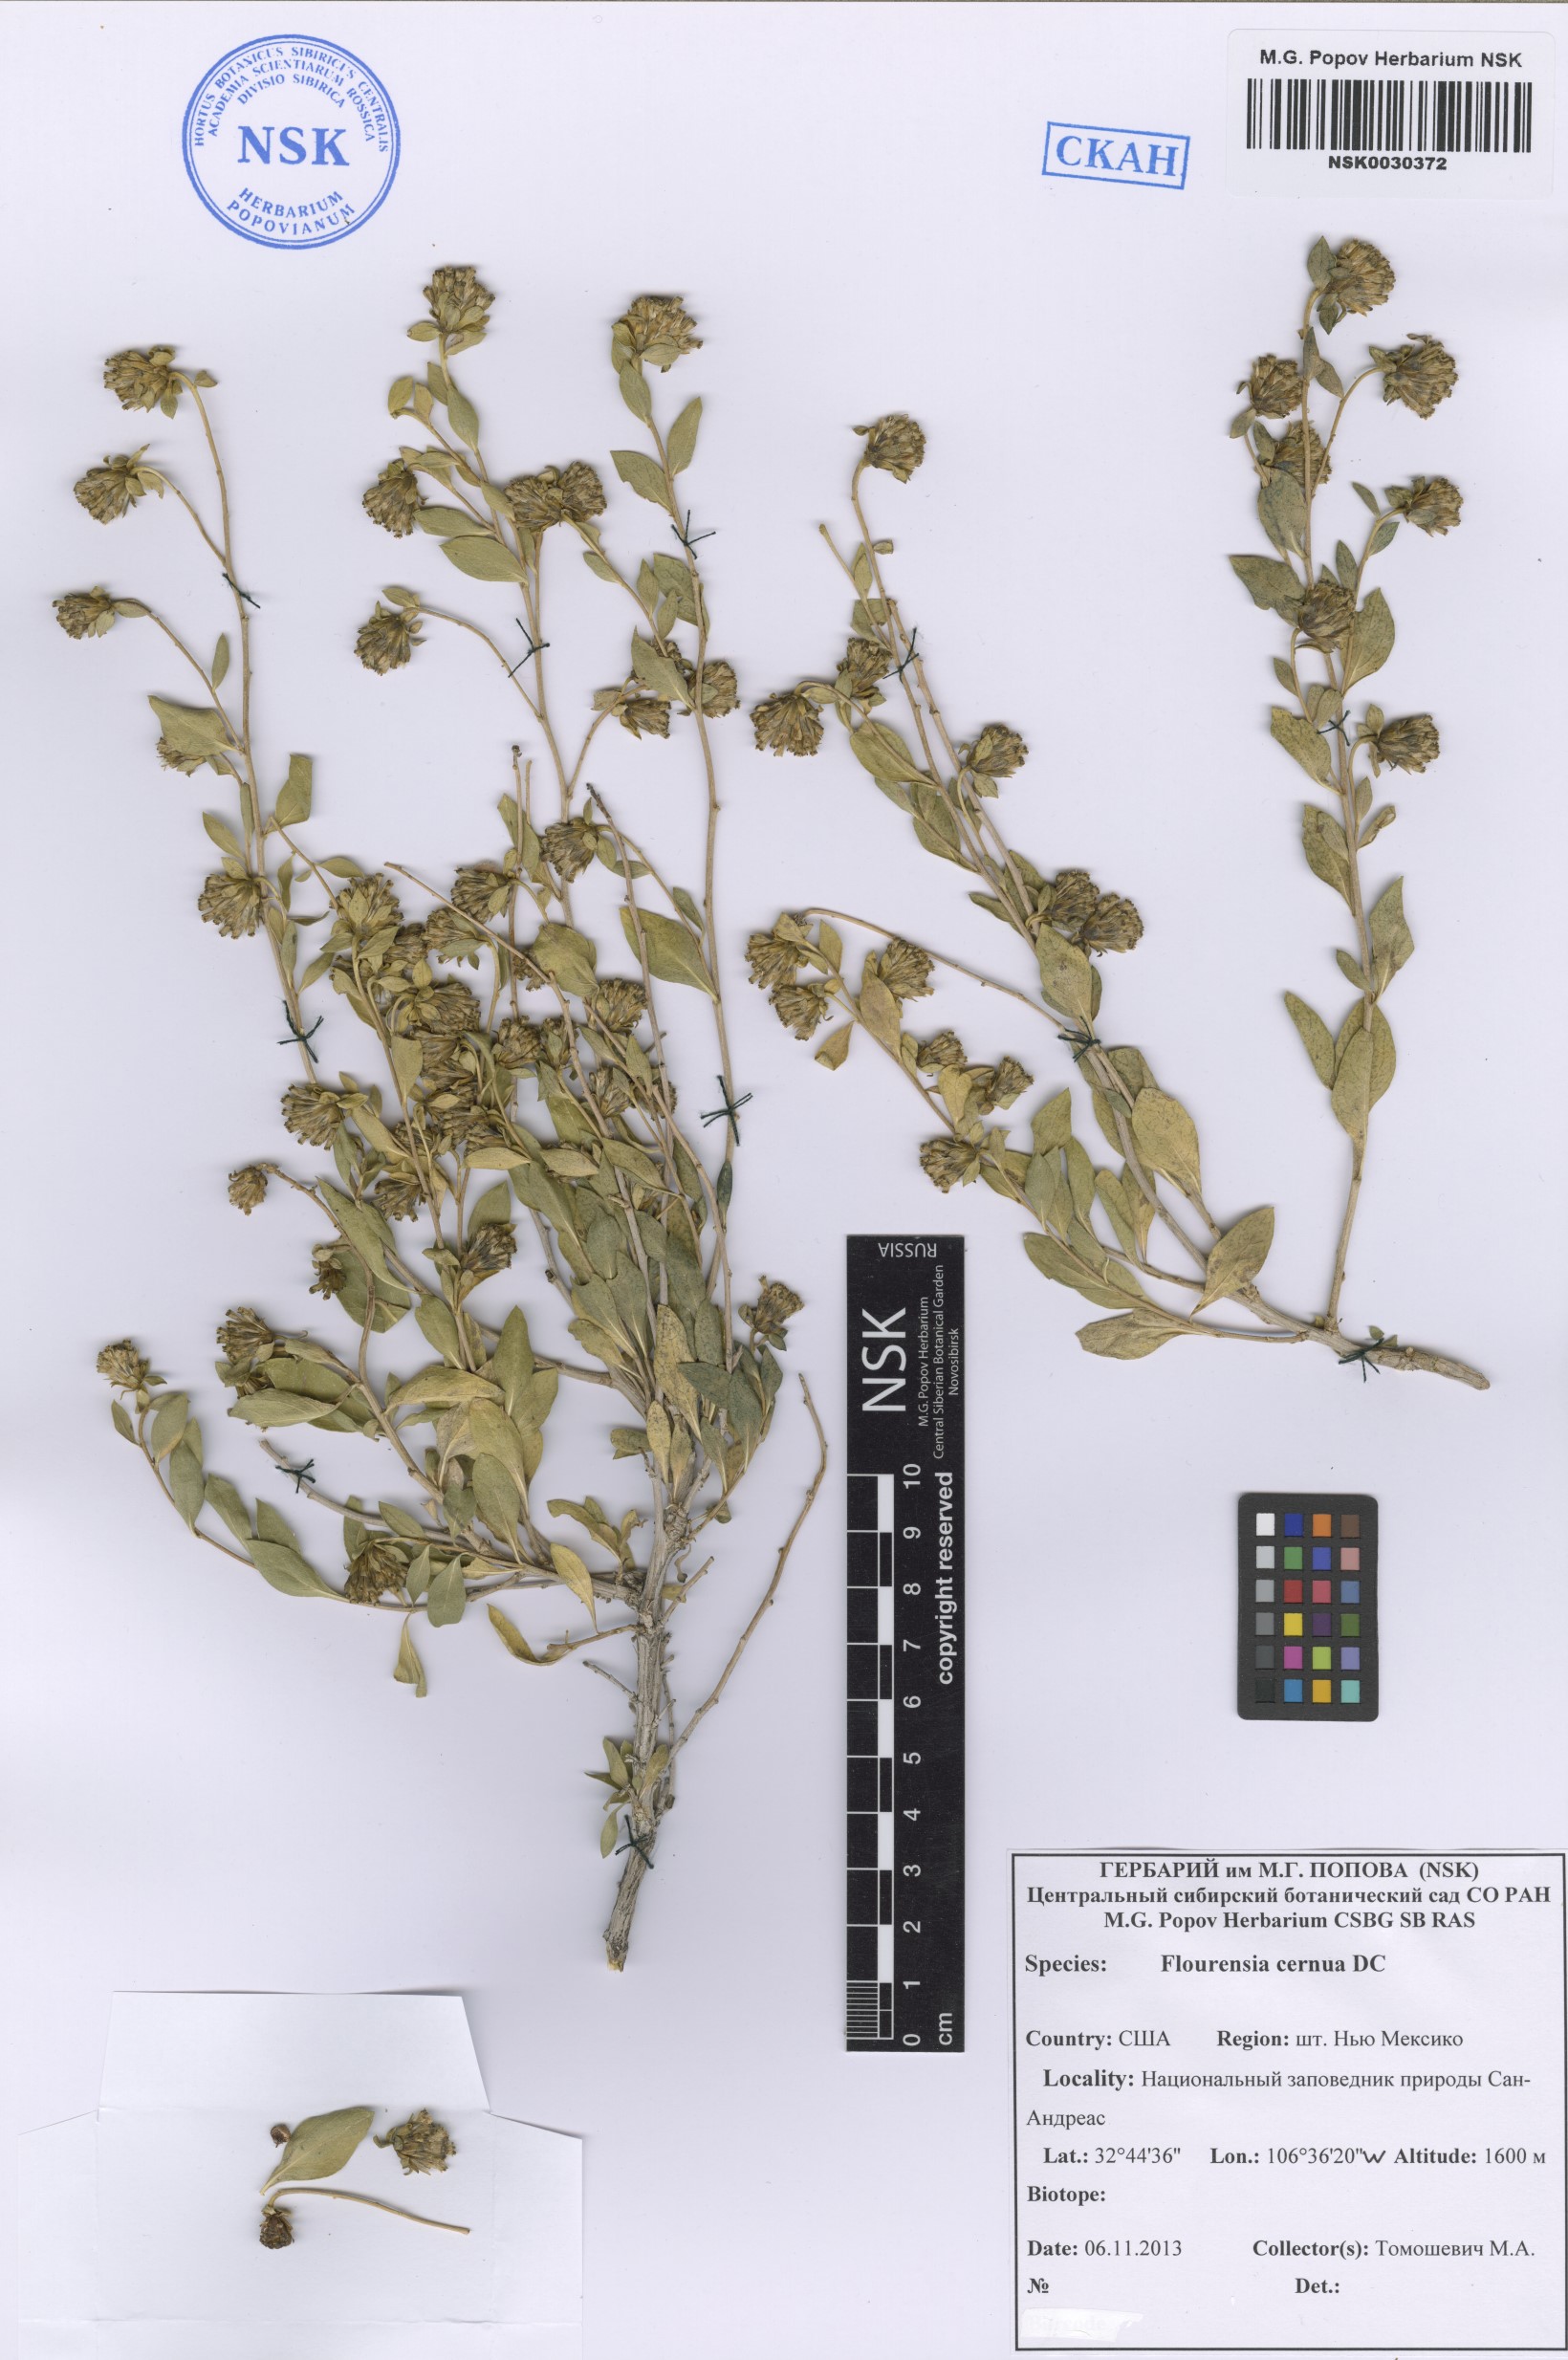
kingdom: Plantae
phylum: Tracheophyta
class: Magnoliopsida
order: Asterales
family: Asteraceae
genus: Flourensia
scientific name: Flourensia cernua
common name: Varnishbush
